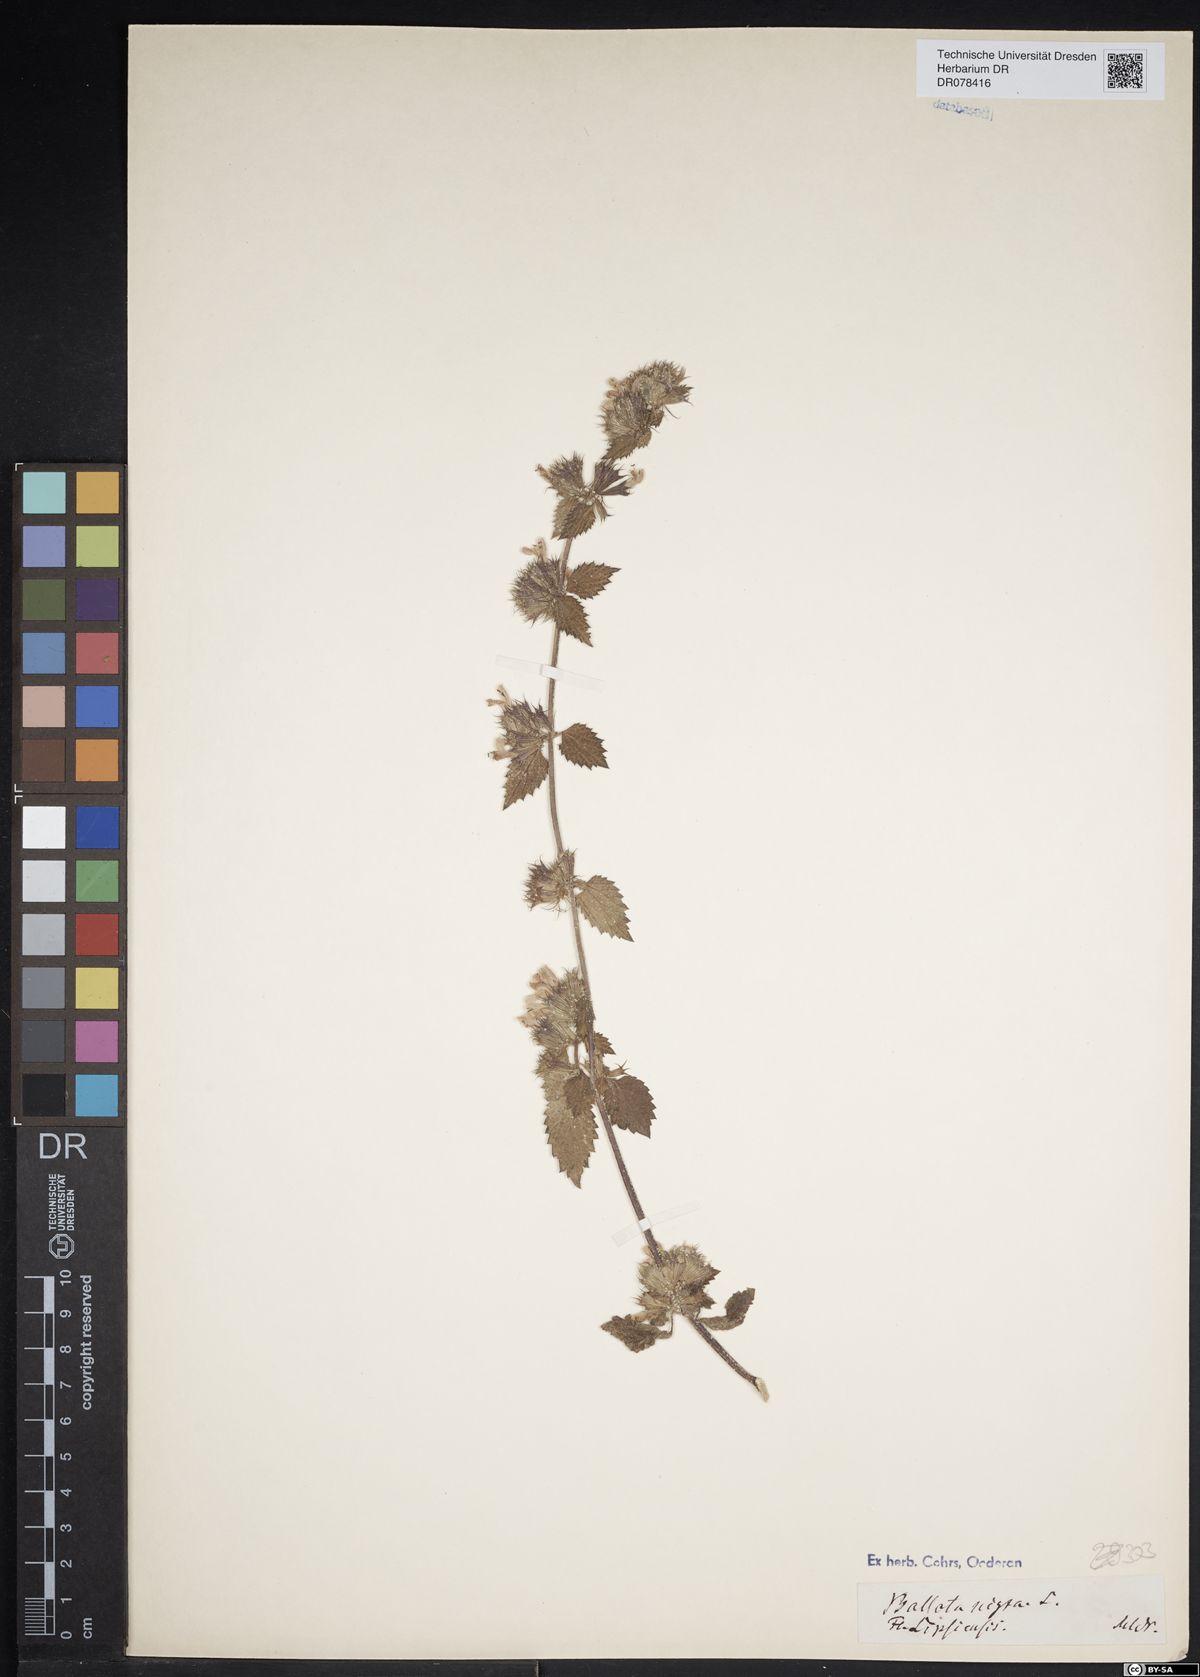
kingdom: Plantae
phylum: Tracheophyta
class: Magnoliopsida
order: Lamiales
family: Lamiaceae
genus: Ballota
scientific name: Ballota nigra
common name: Black horehound
